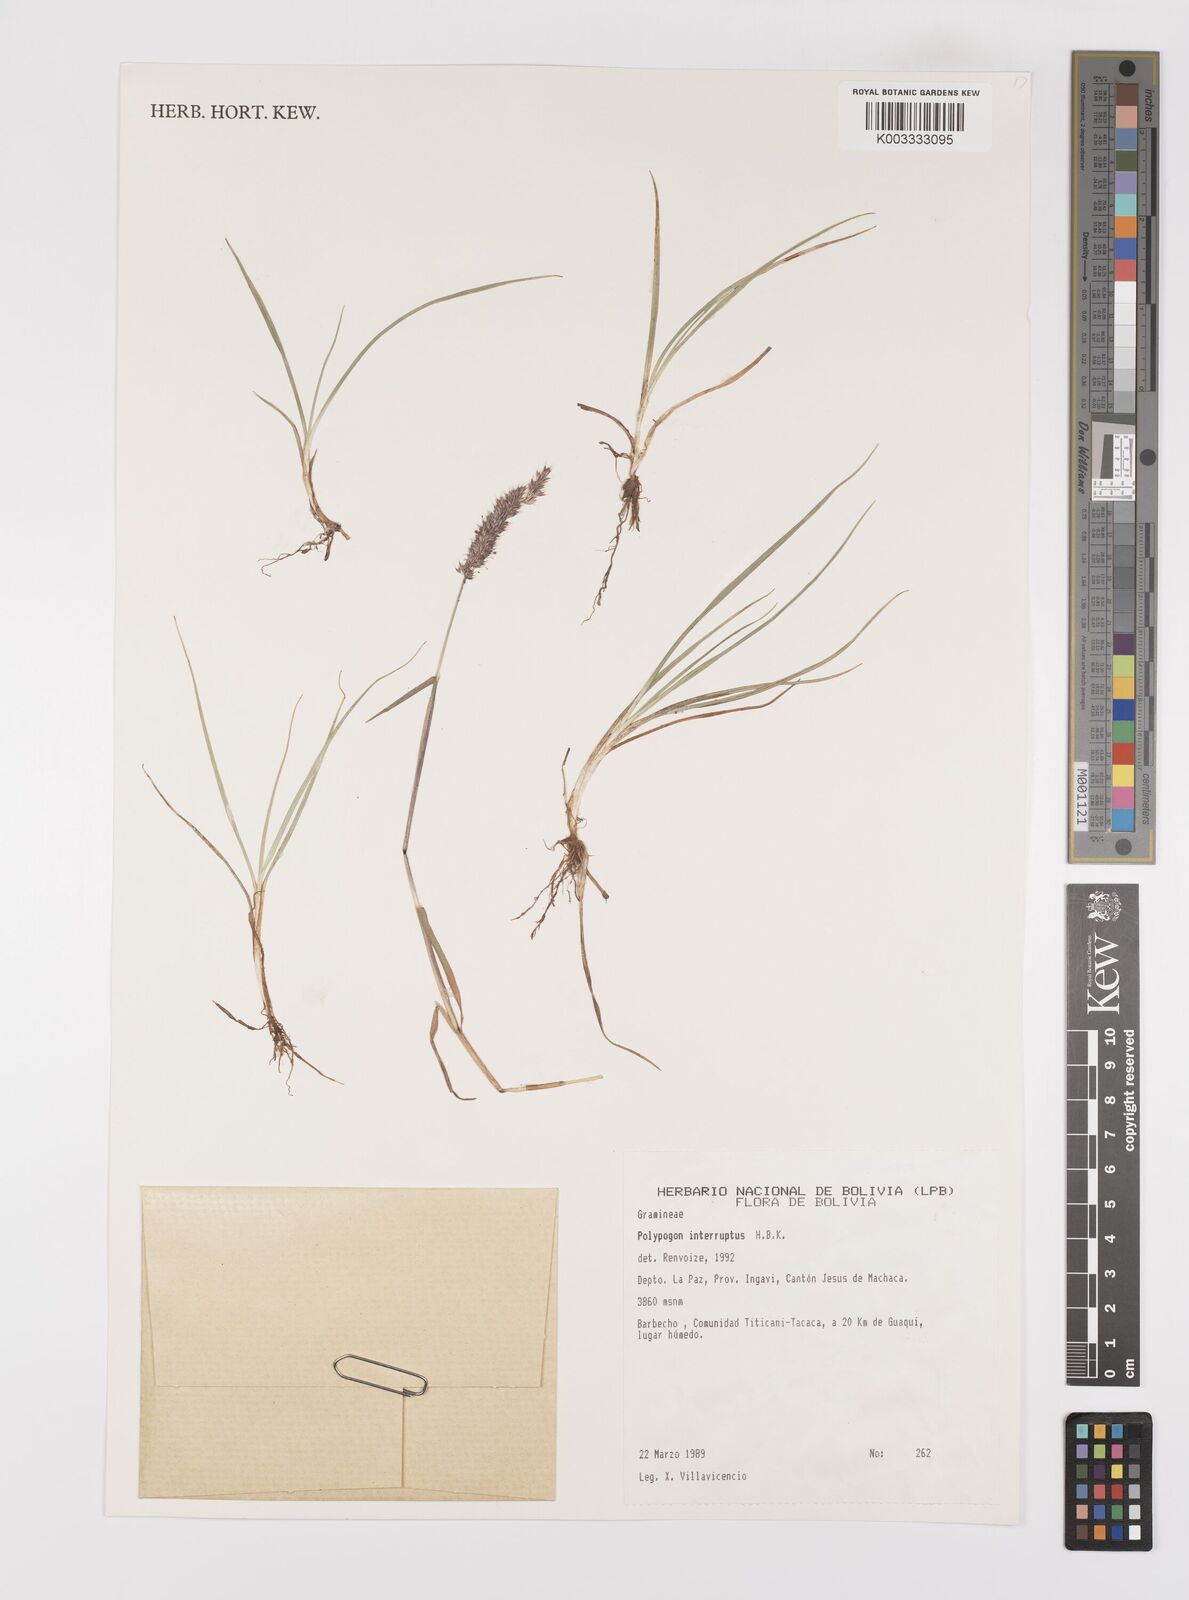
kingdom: Plantae
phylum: Tracheophyta
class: Liliopsida
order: Poales
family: Poaceae
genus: Polypogon
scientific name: Polypogon interruptus
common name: Ditch polypogon
